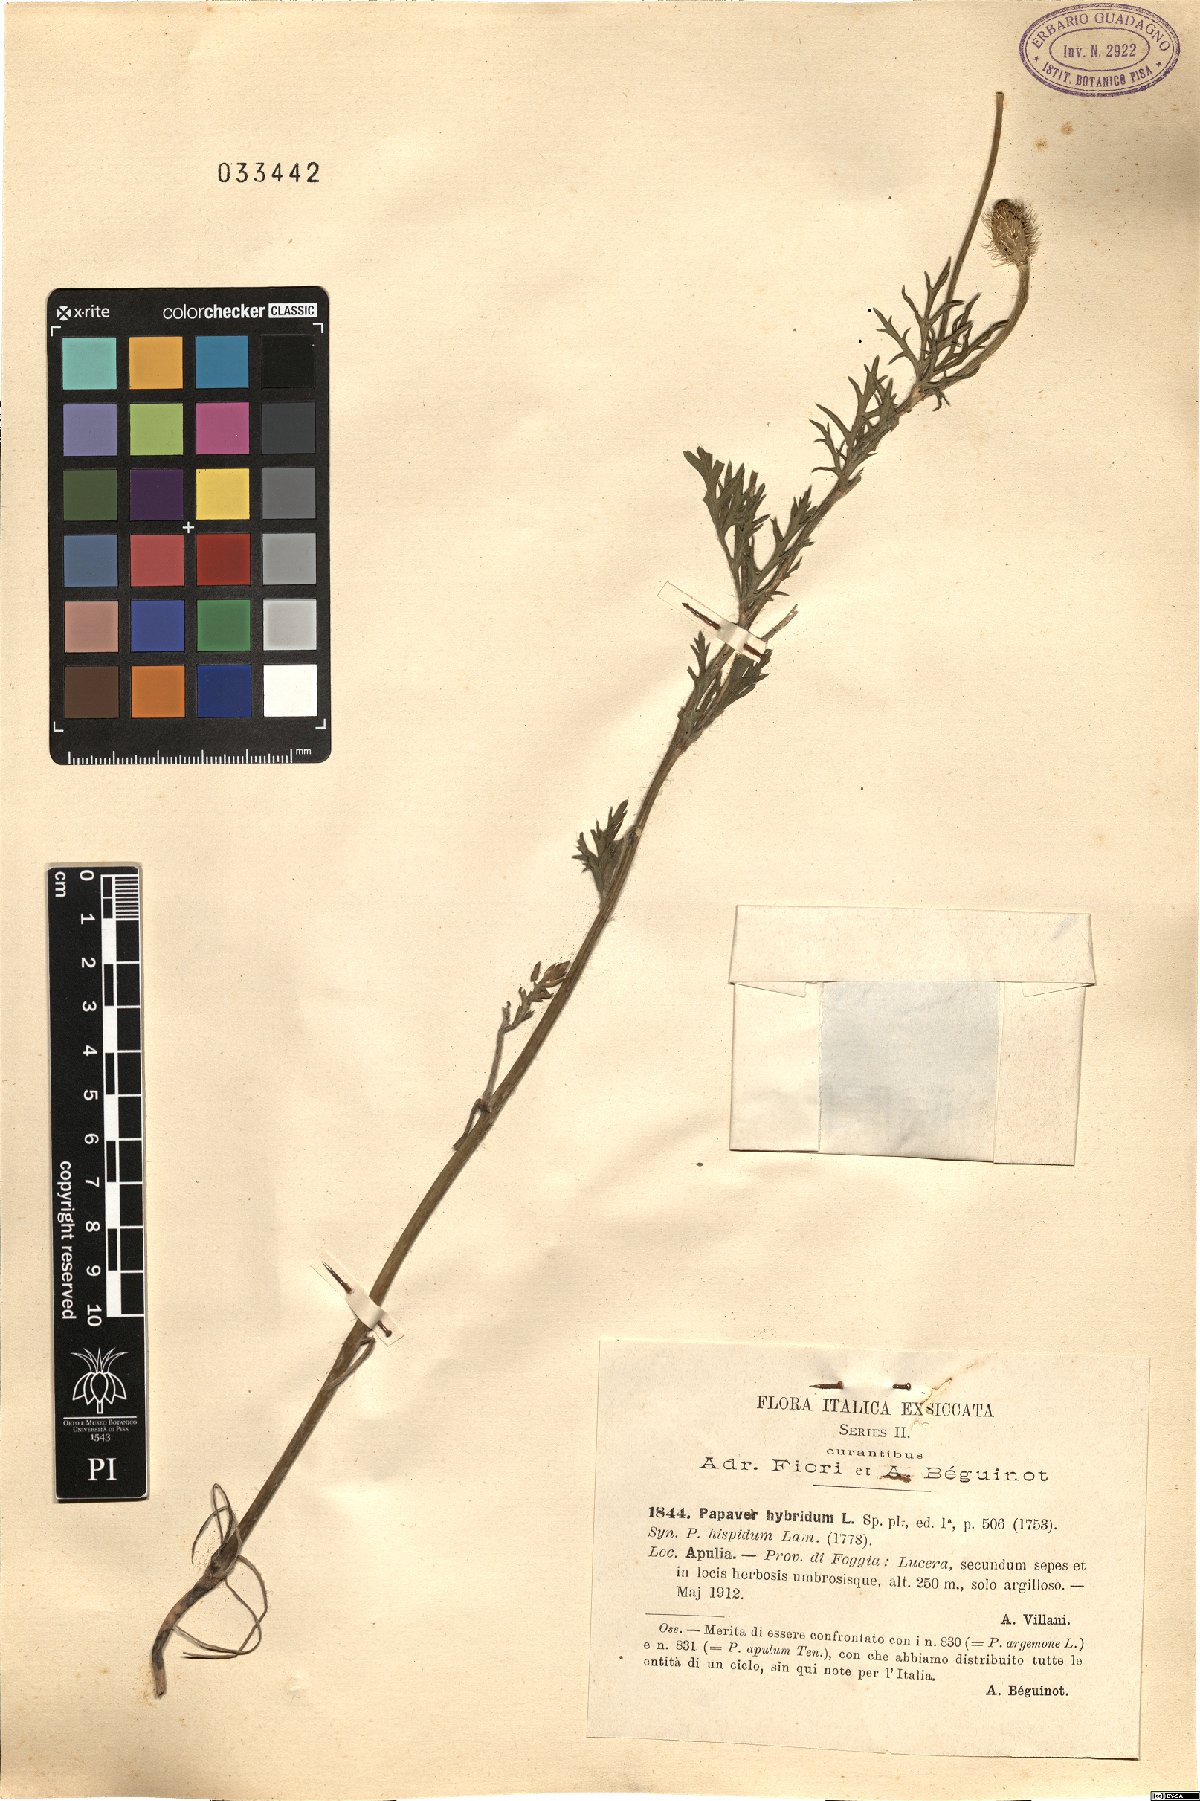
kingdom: Plantae
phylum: Tracheophyta
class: Magnoliopsida
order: Ranunculales
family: Papaveraceae
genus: Roemeria
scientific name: Roemeria hispida
